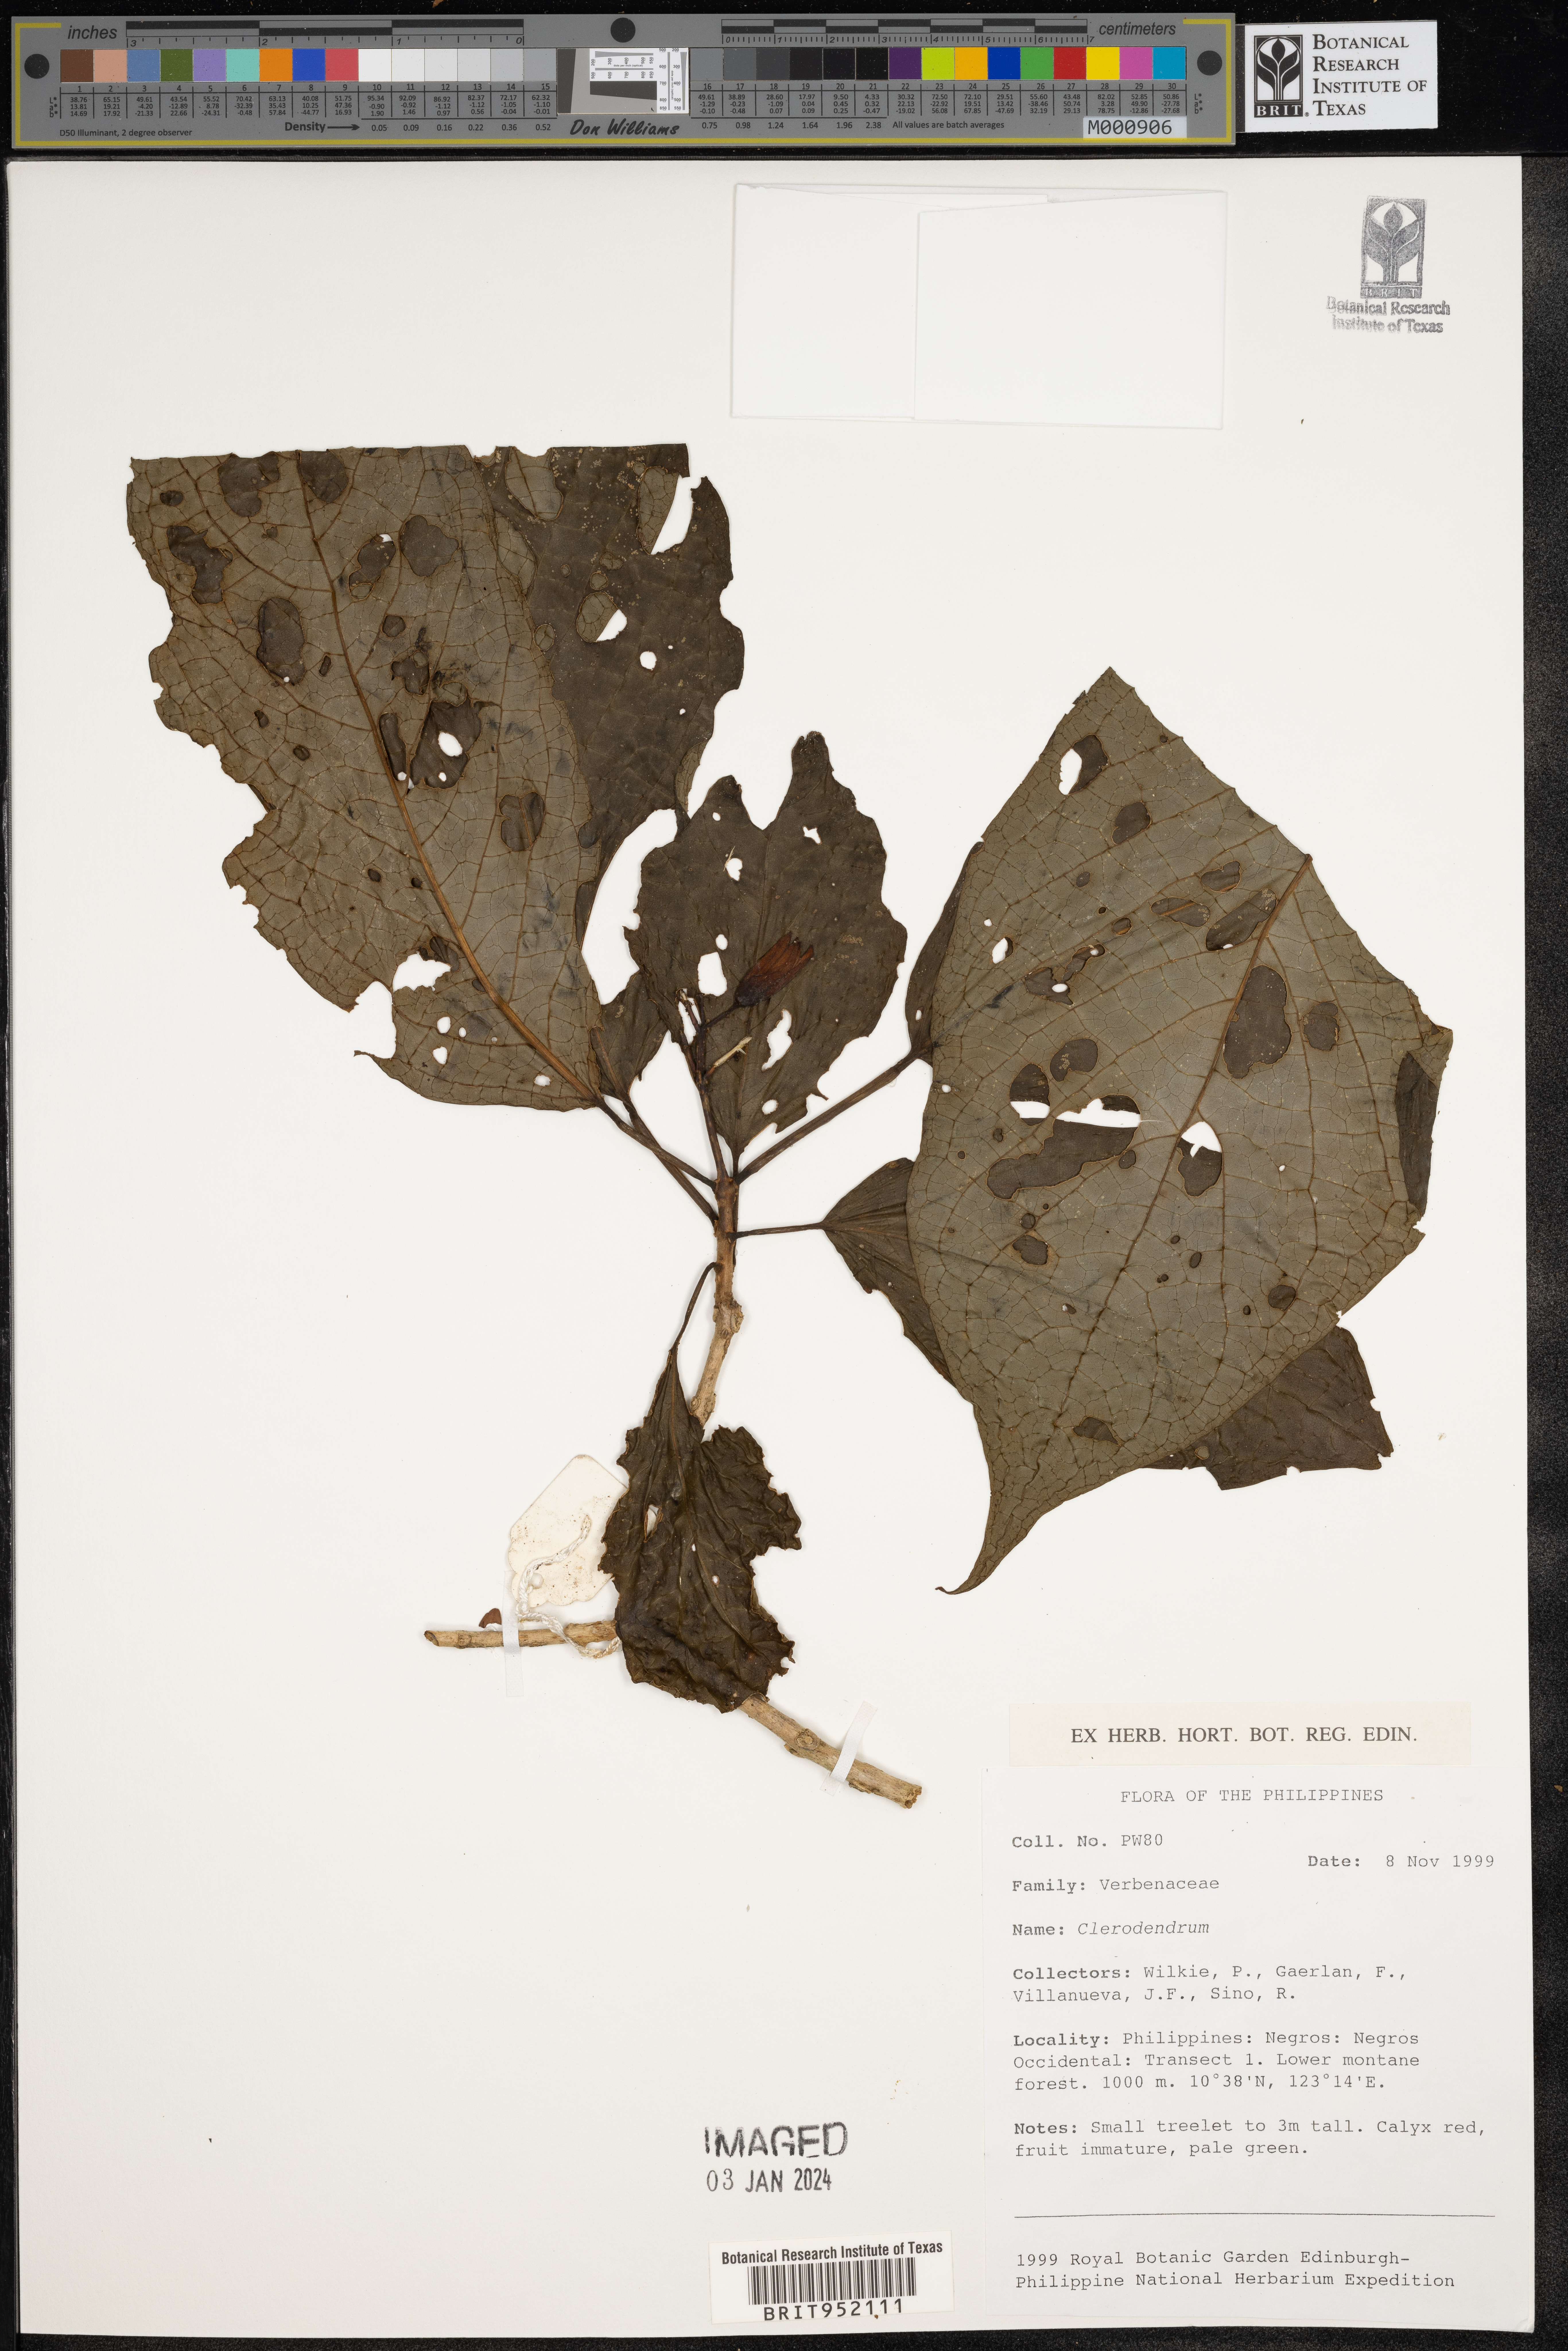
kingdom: Plantae
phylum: Tracheophyta
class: Magnoliopsida
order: Lamiales
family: Lamiaceae
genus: Clerodendrum
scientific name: Clerodendrum
